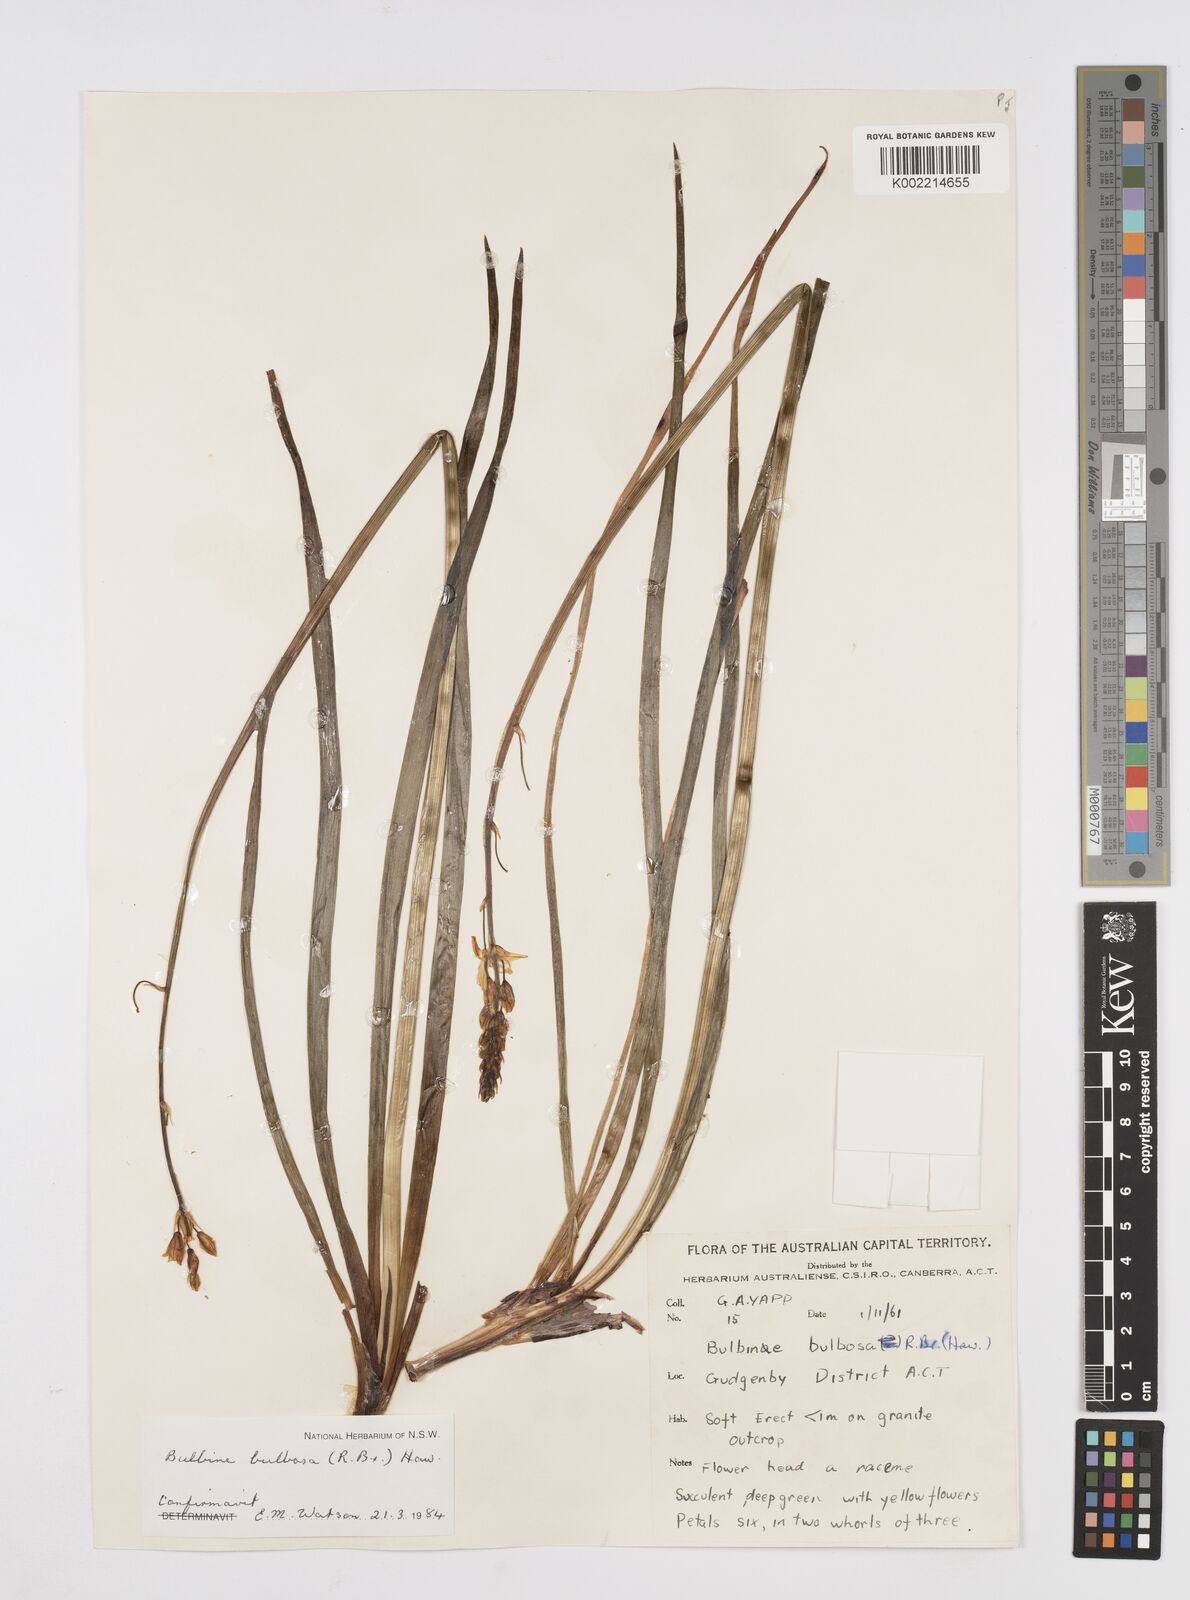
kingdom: Plantae
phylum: Tracheophyta
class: Liliopsida
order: Asparagales
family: Asphodelaceae
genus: Bulbine
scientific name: Bulbine bulbosa
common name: Golden-lily
